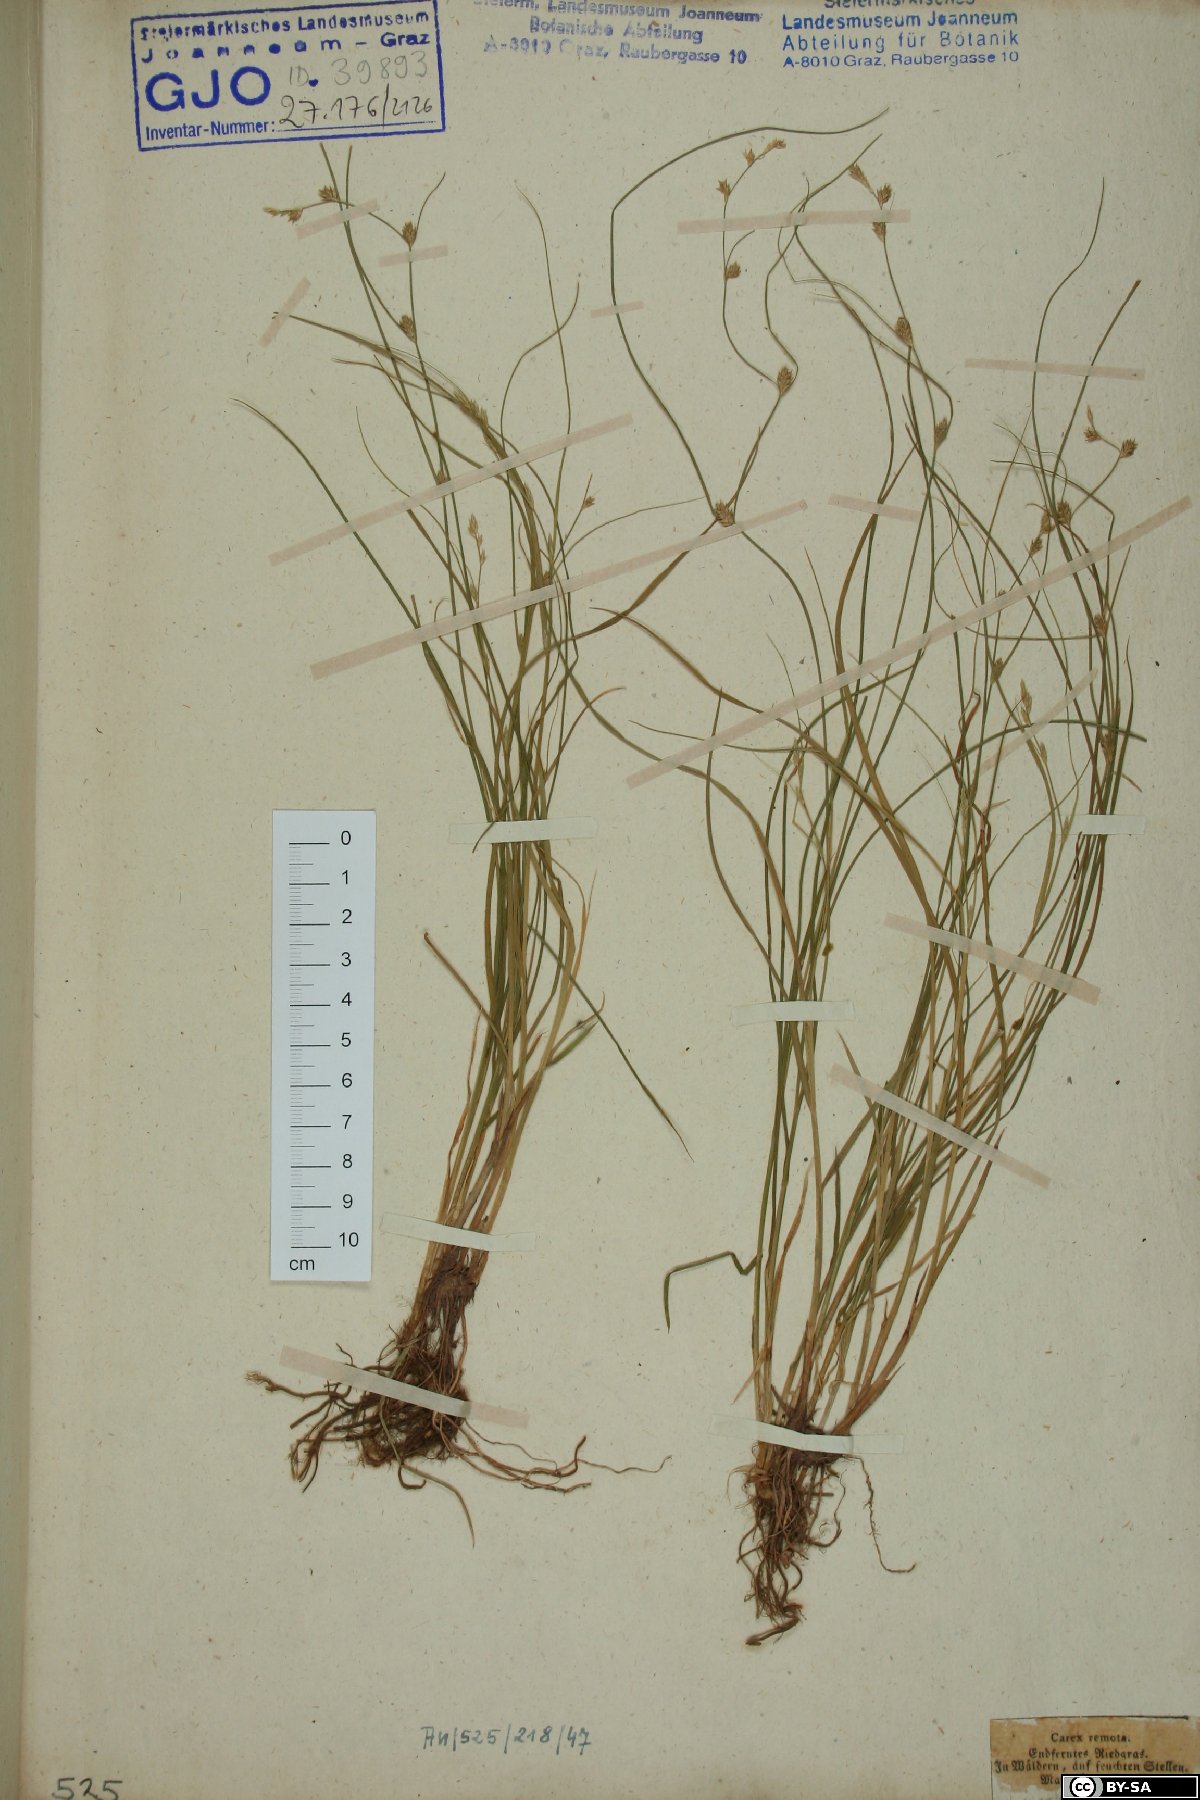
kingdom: Plantae
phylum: Tracheophyta
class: Liliopsida
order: Poales
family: Cyperaceae
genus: Carex
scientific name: Carex remota
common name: Remote sedge
